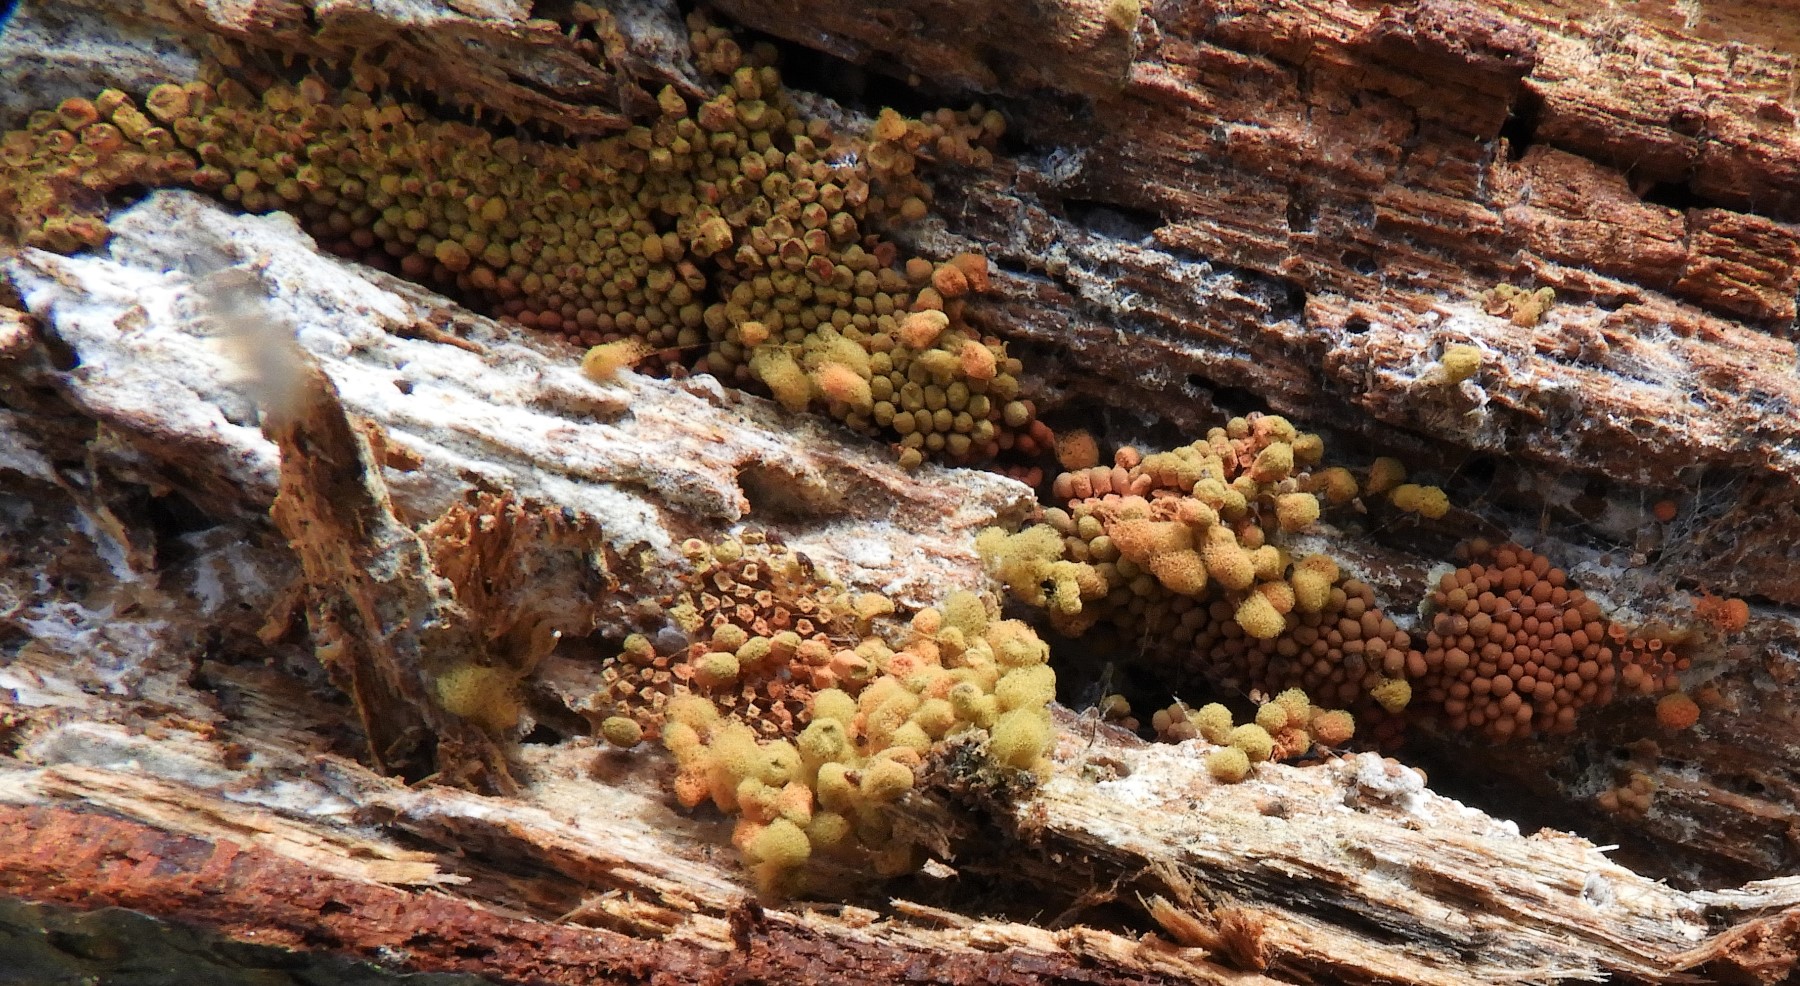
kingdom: Protozoa
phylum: Mycetozoa
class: Myxomycetes
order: Trichiales
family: Arcyriaceae
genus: Arcyria
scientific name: Arcyria ferruginea
